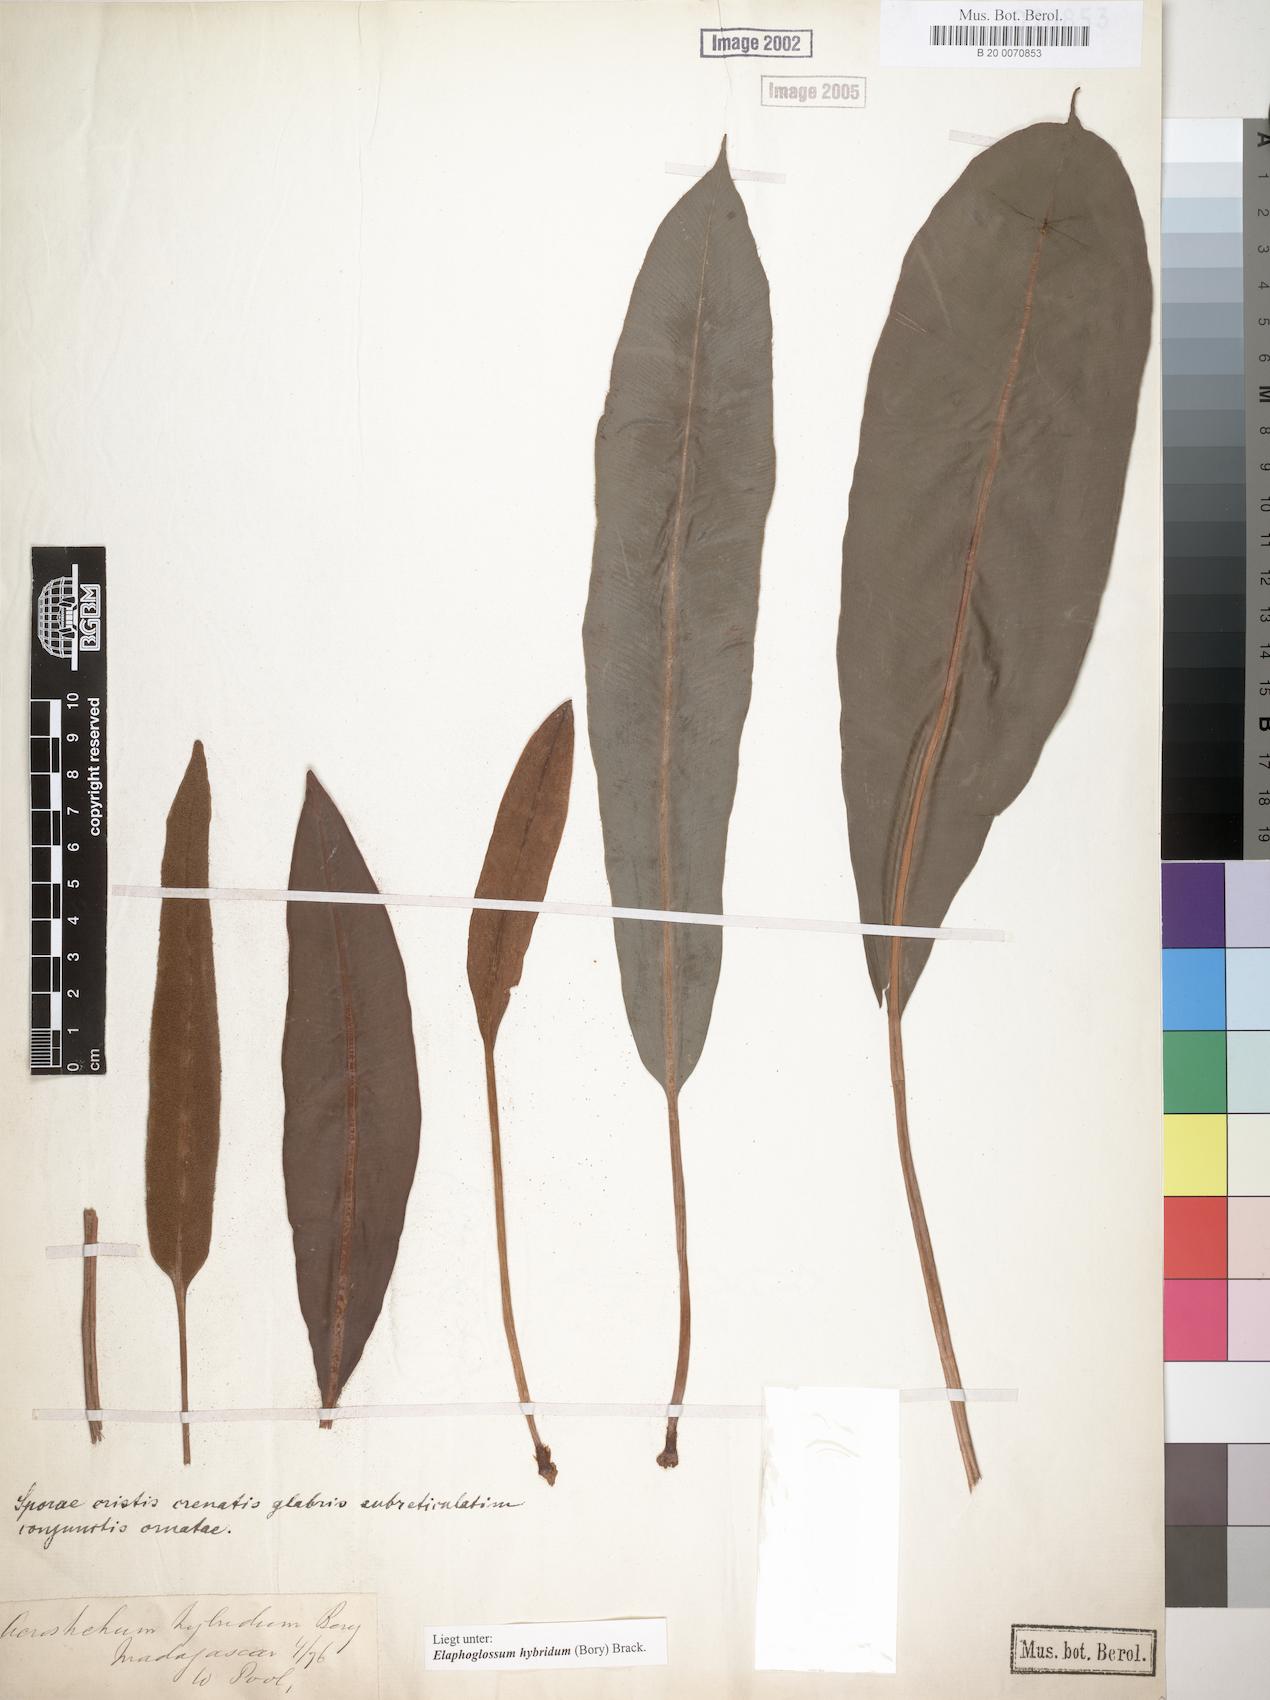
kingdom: Plantae
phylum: Tracheophyta
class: Polypodiopsida
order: Polypodiales
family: Dryopteridaceae
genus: Elaphoglossum
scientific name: Elaphoglossum hybridum
